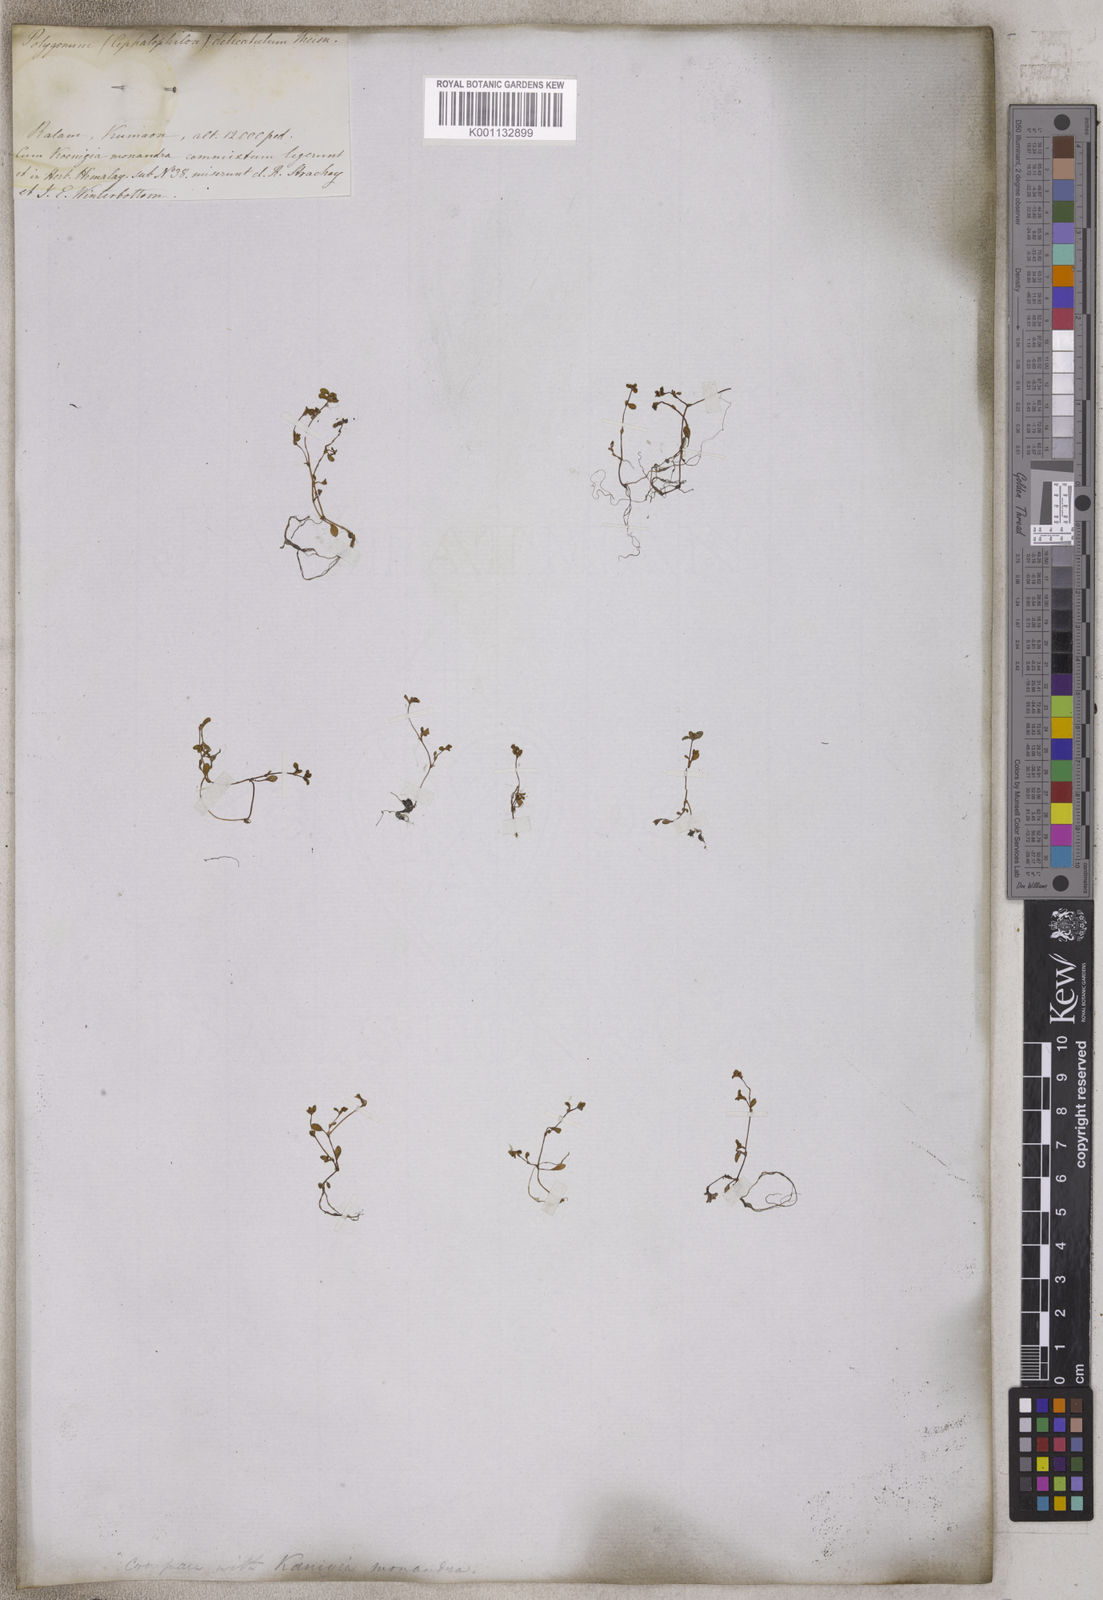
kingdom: Plantae
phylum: Tracheophyta
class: Magnoliopsida
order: Caryophyllales
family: Polygonaceae
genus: Koenigia
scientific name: Koenigia delicatula
